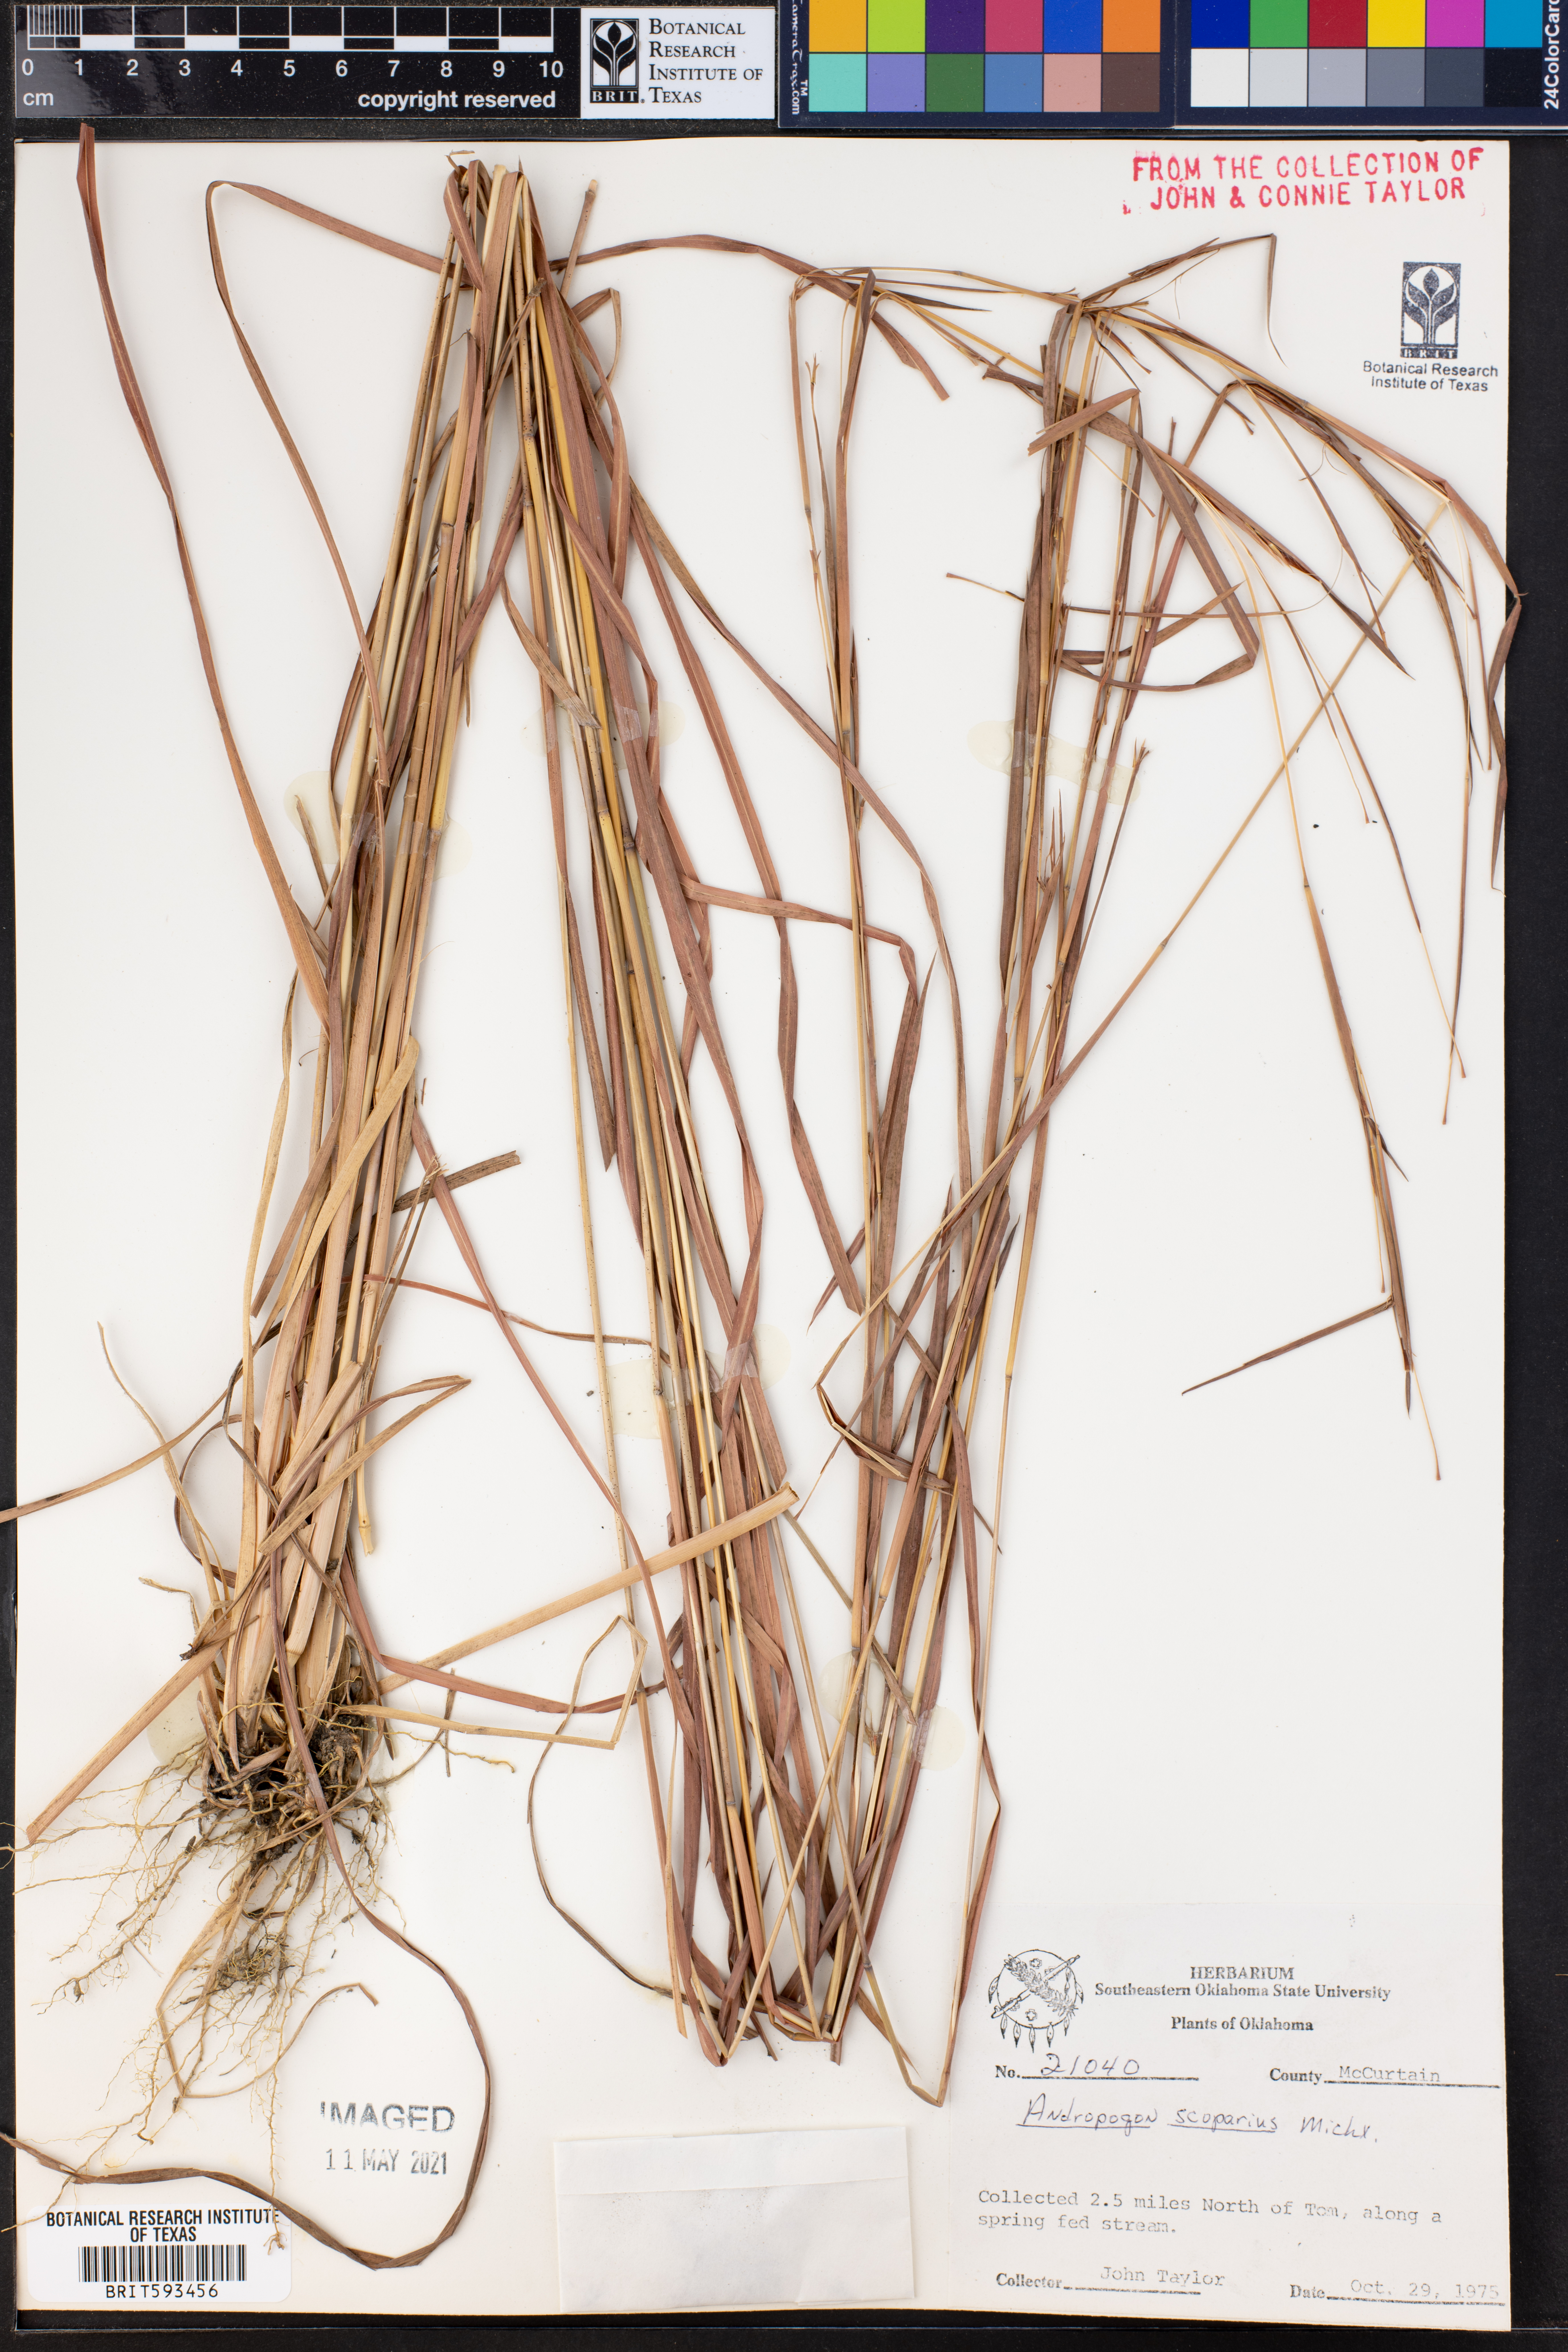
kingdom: Plantae
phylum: Tracheophyta
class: Liliopsida
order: Poales
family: Poaceae
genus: Schizachyrium
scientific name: Schizachyrium scoparium
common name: Little bluestem
